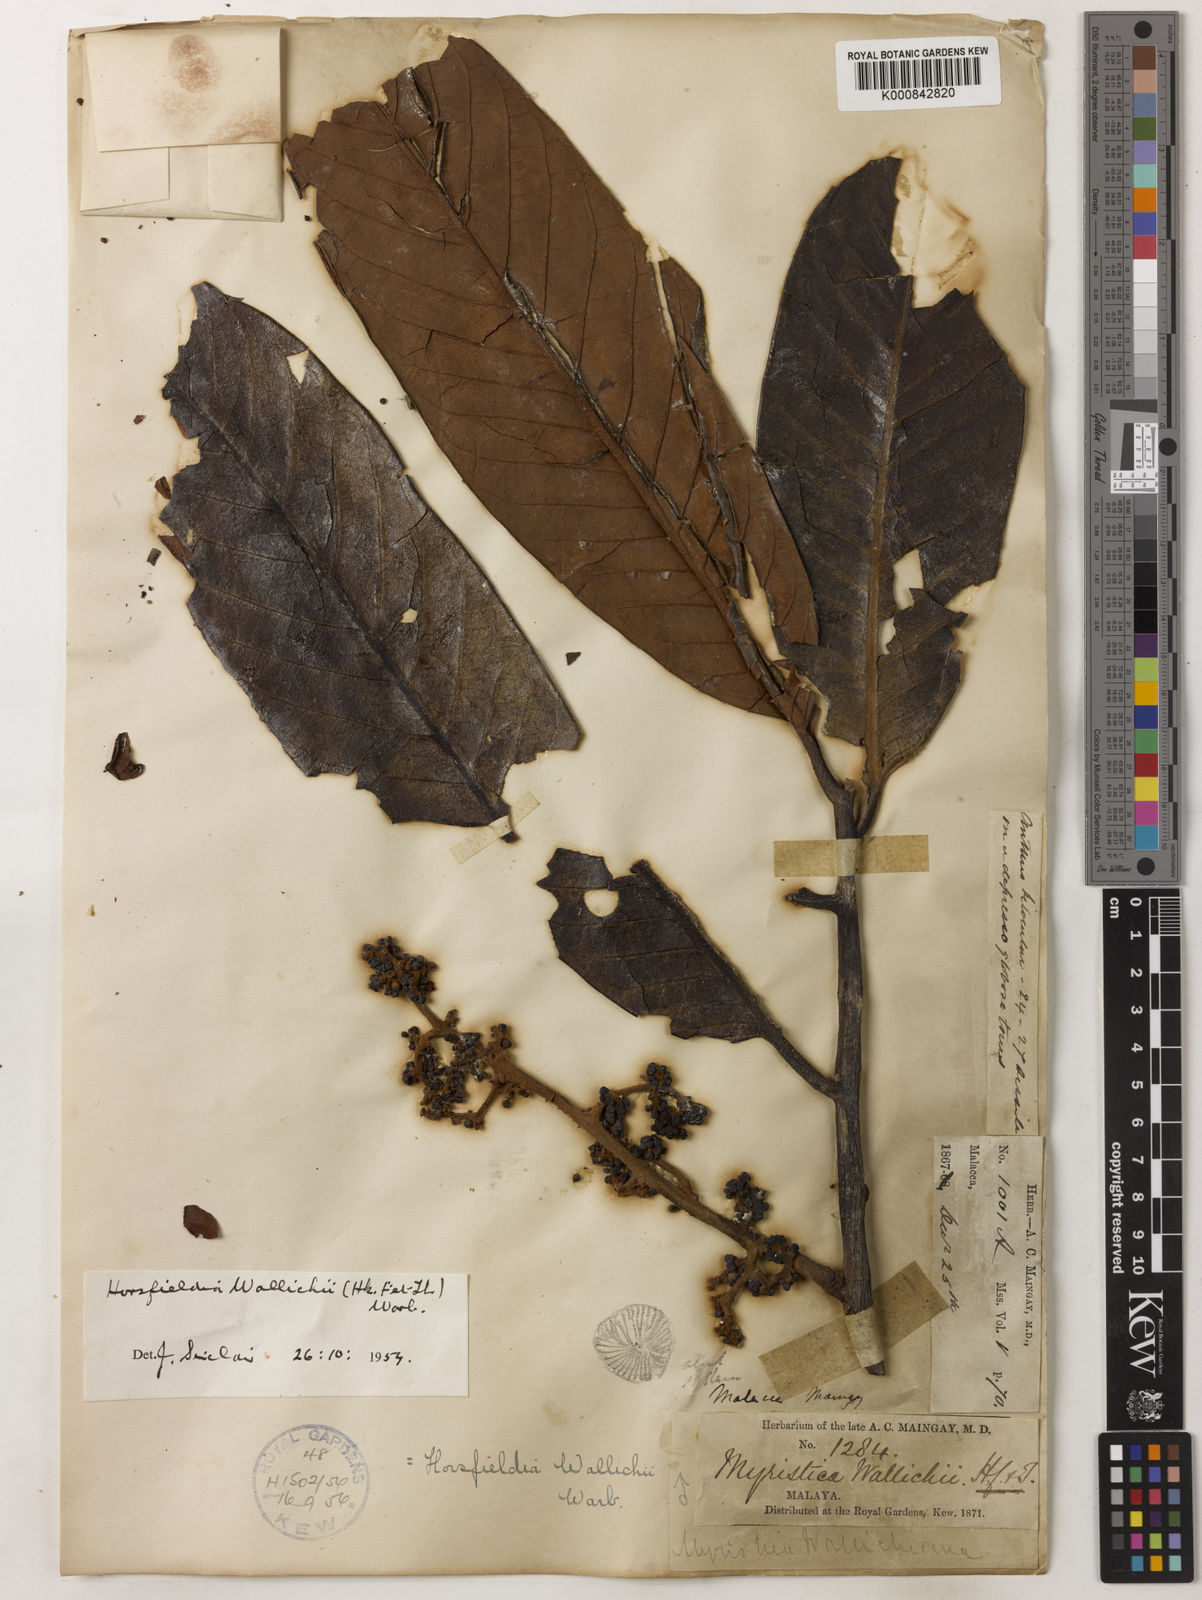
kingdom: Plantae
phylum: Tracheophyta
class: Magnoliopsida
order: Magnoliales
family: Myristicaceae
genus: Horsfieldia
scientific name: Horsfieldia wallichii
